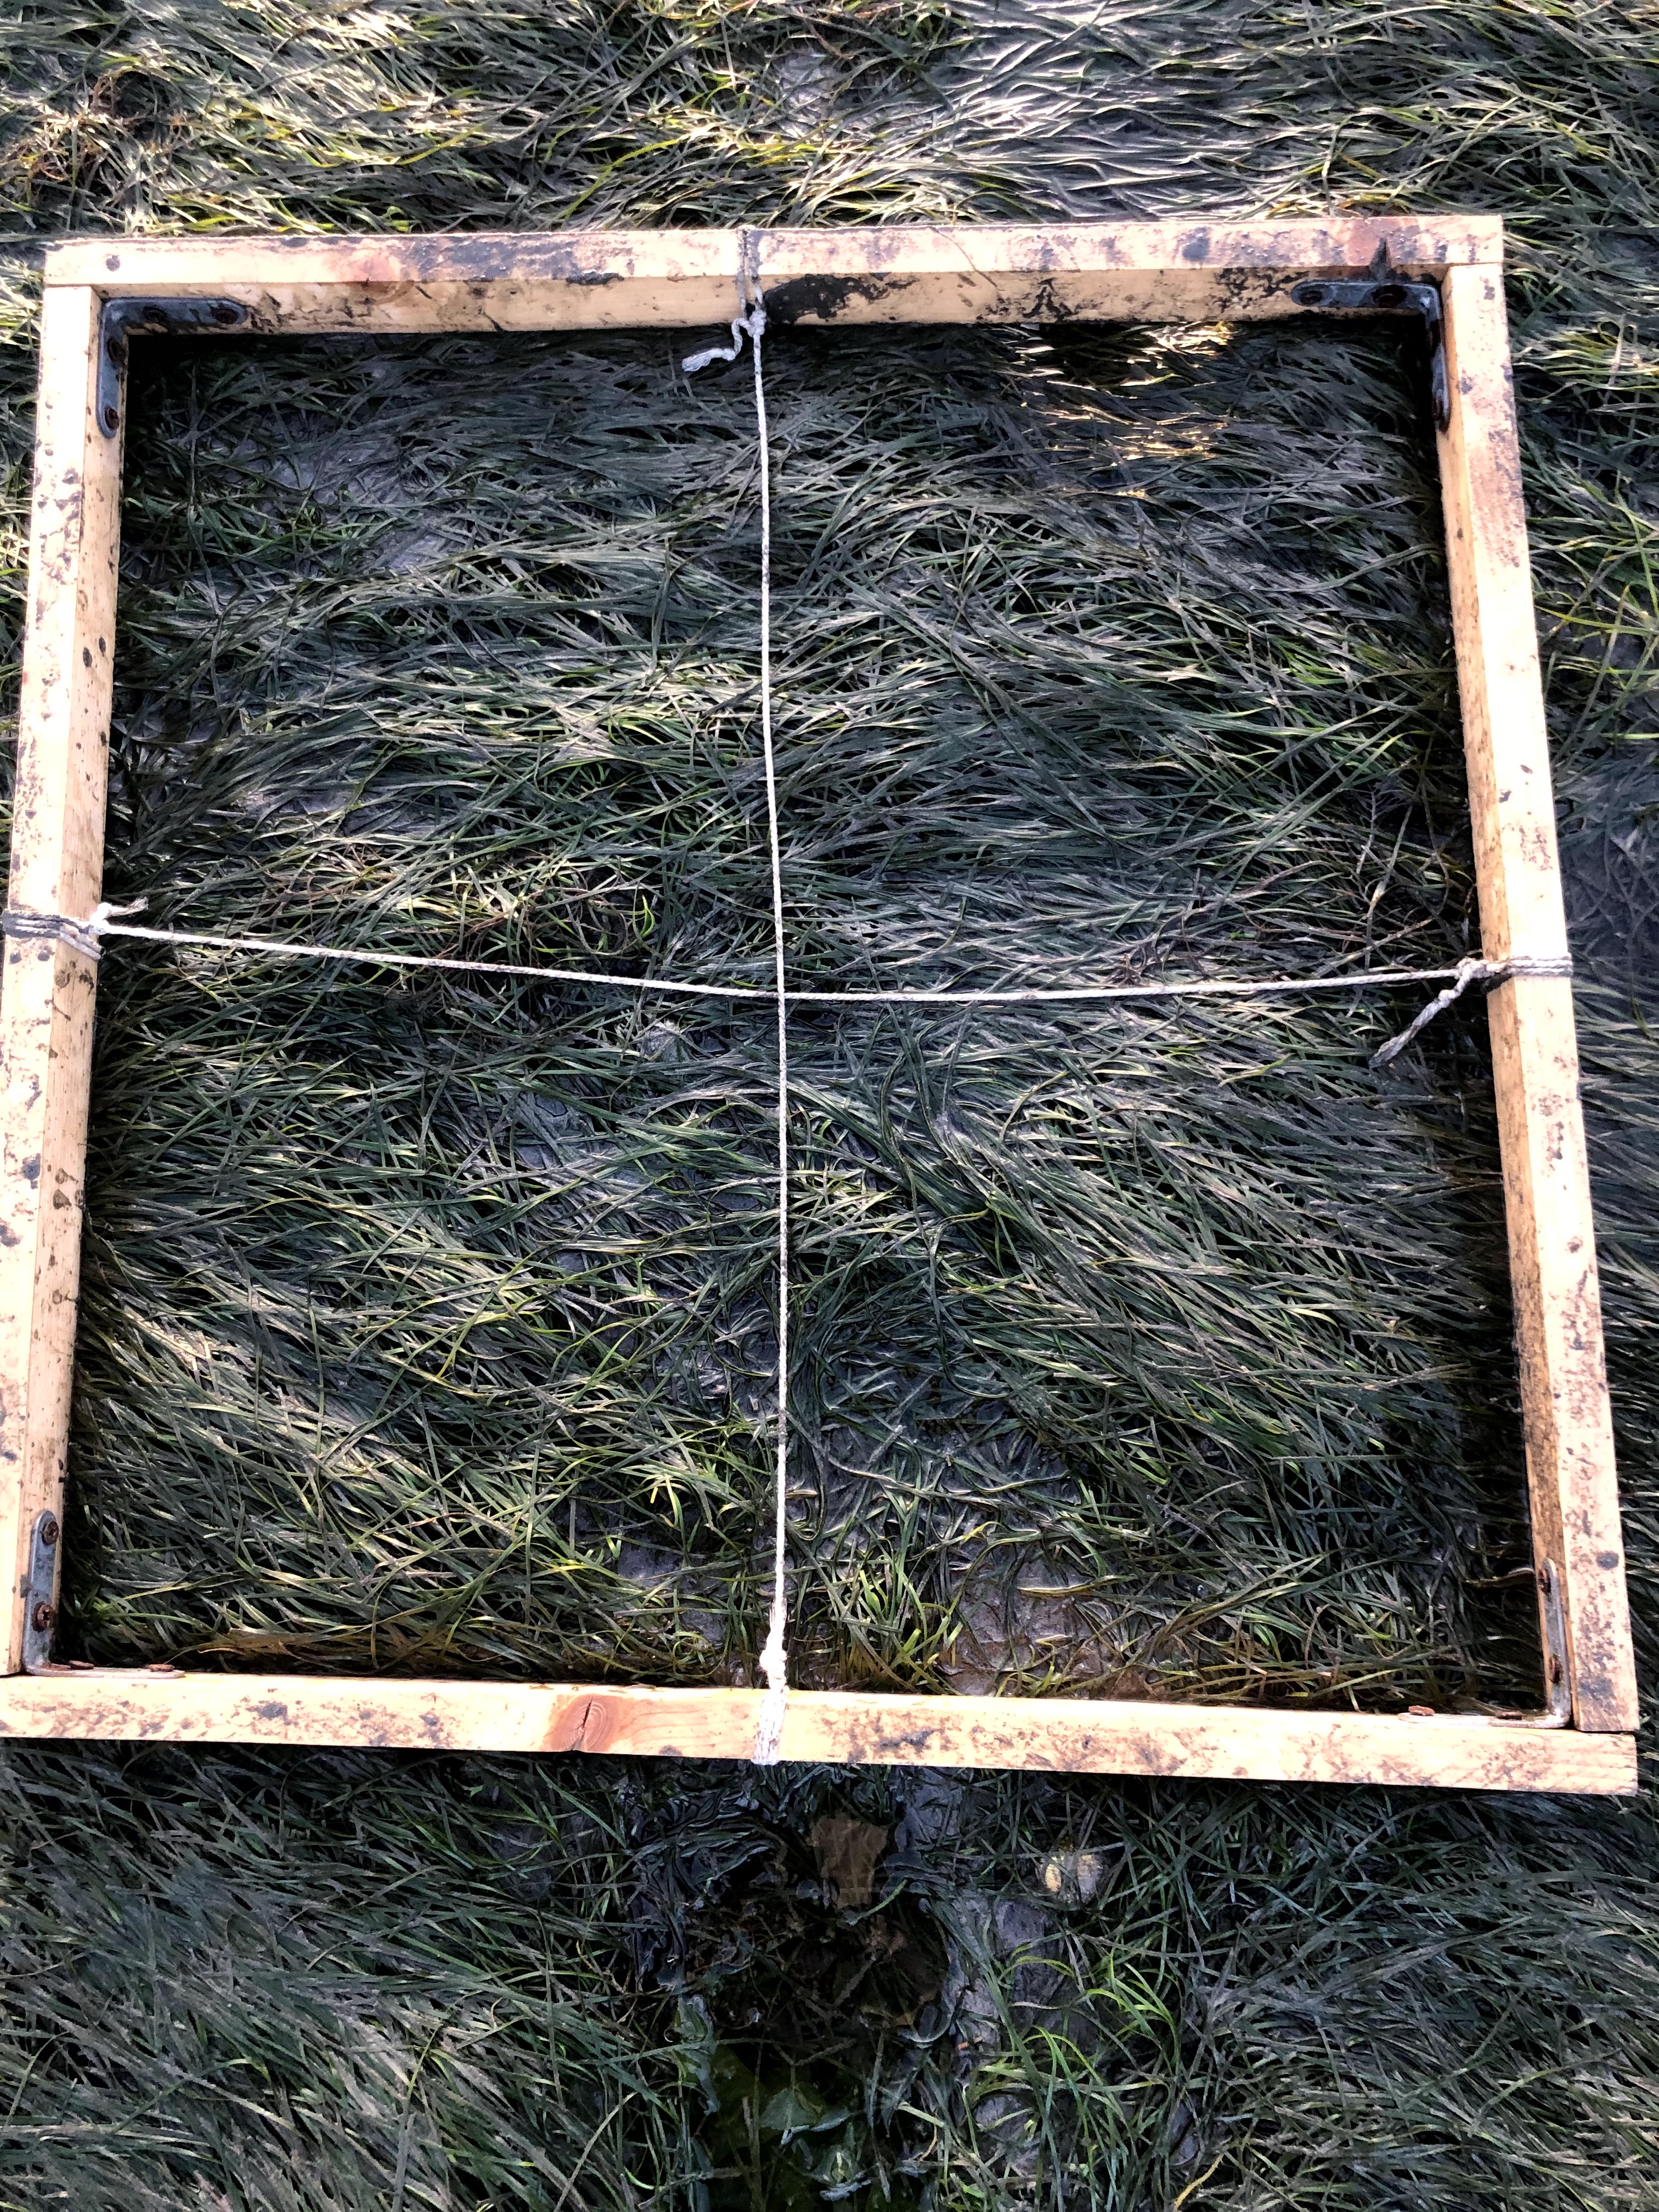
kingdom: Plantae
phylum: Tracheophyta
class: Liliopsida
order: Alismatales
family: Zosteraceae
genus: Zostera
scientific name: Zostera noltii
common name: Dwarf eelgrass
